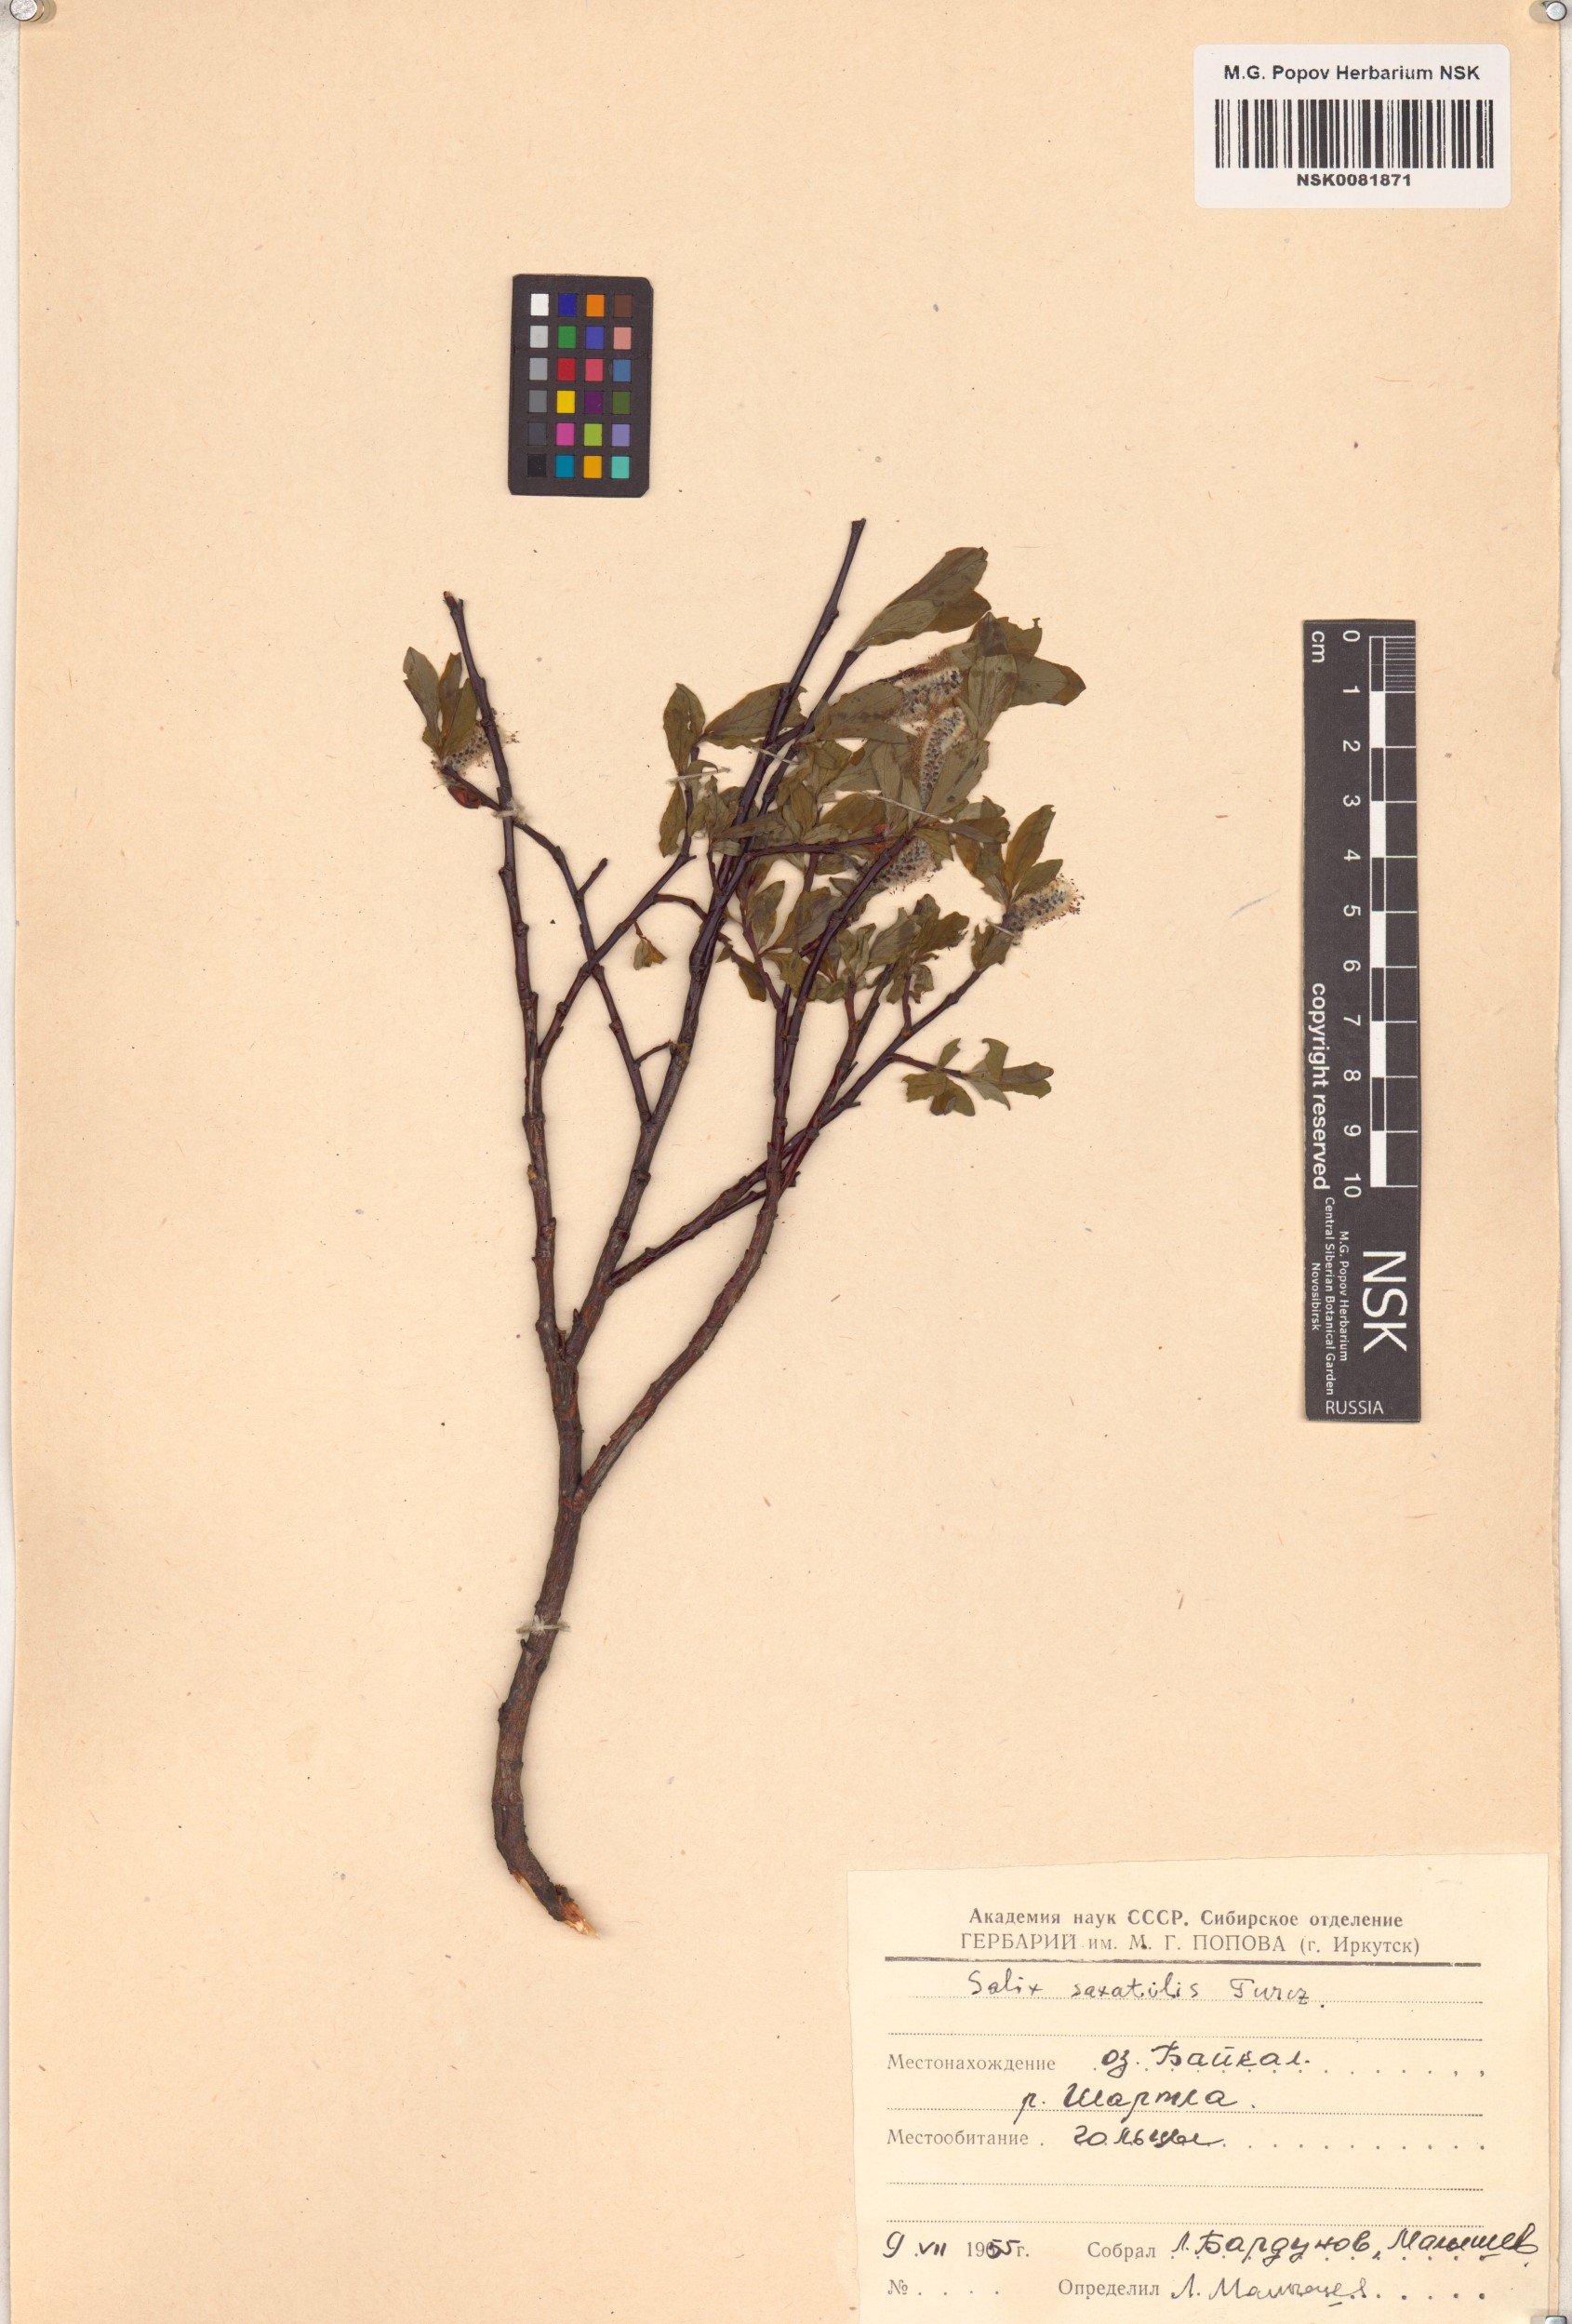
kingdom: Plantae
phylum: Tracheophyta
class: Magnoliopsida
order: Malpighiales
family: Salicaceae
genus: Salix
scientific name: Salix saxatilis
